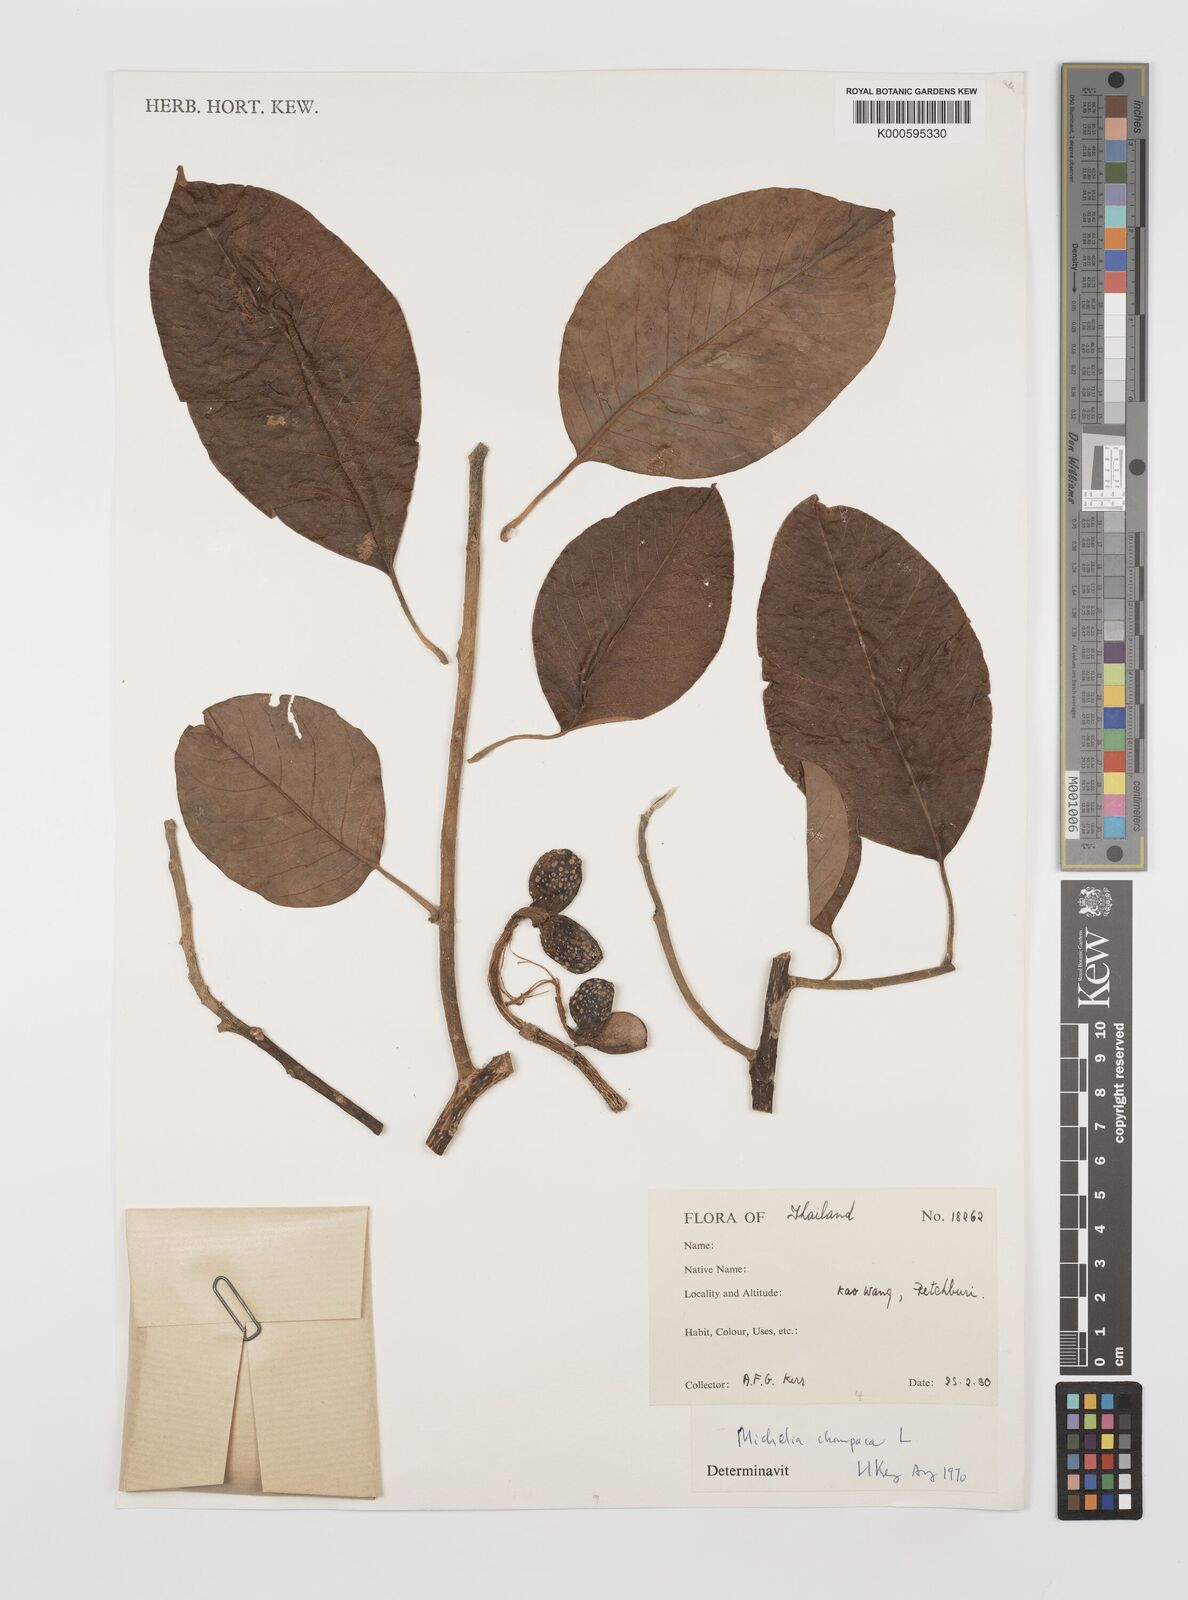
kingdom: Plantae
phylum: Tracheophyta
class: Magnoliopsida
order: Magnoliales
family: Magnoliaceae
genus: Magnolia
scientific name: Magnolia champaca
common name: Champak
